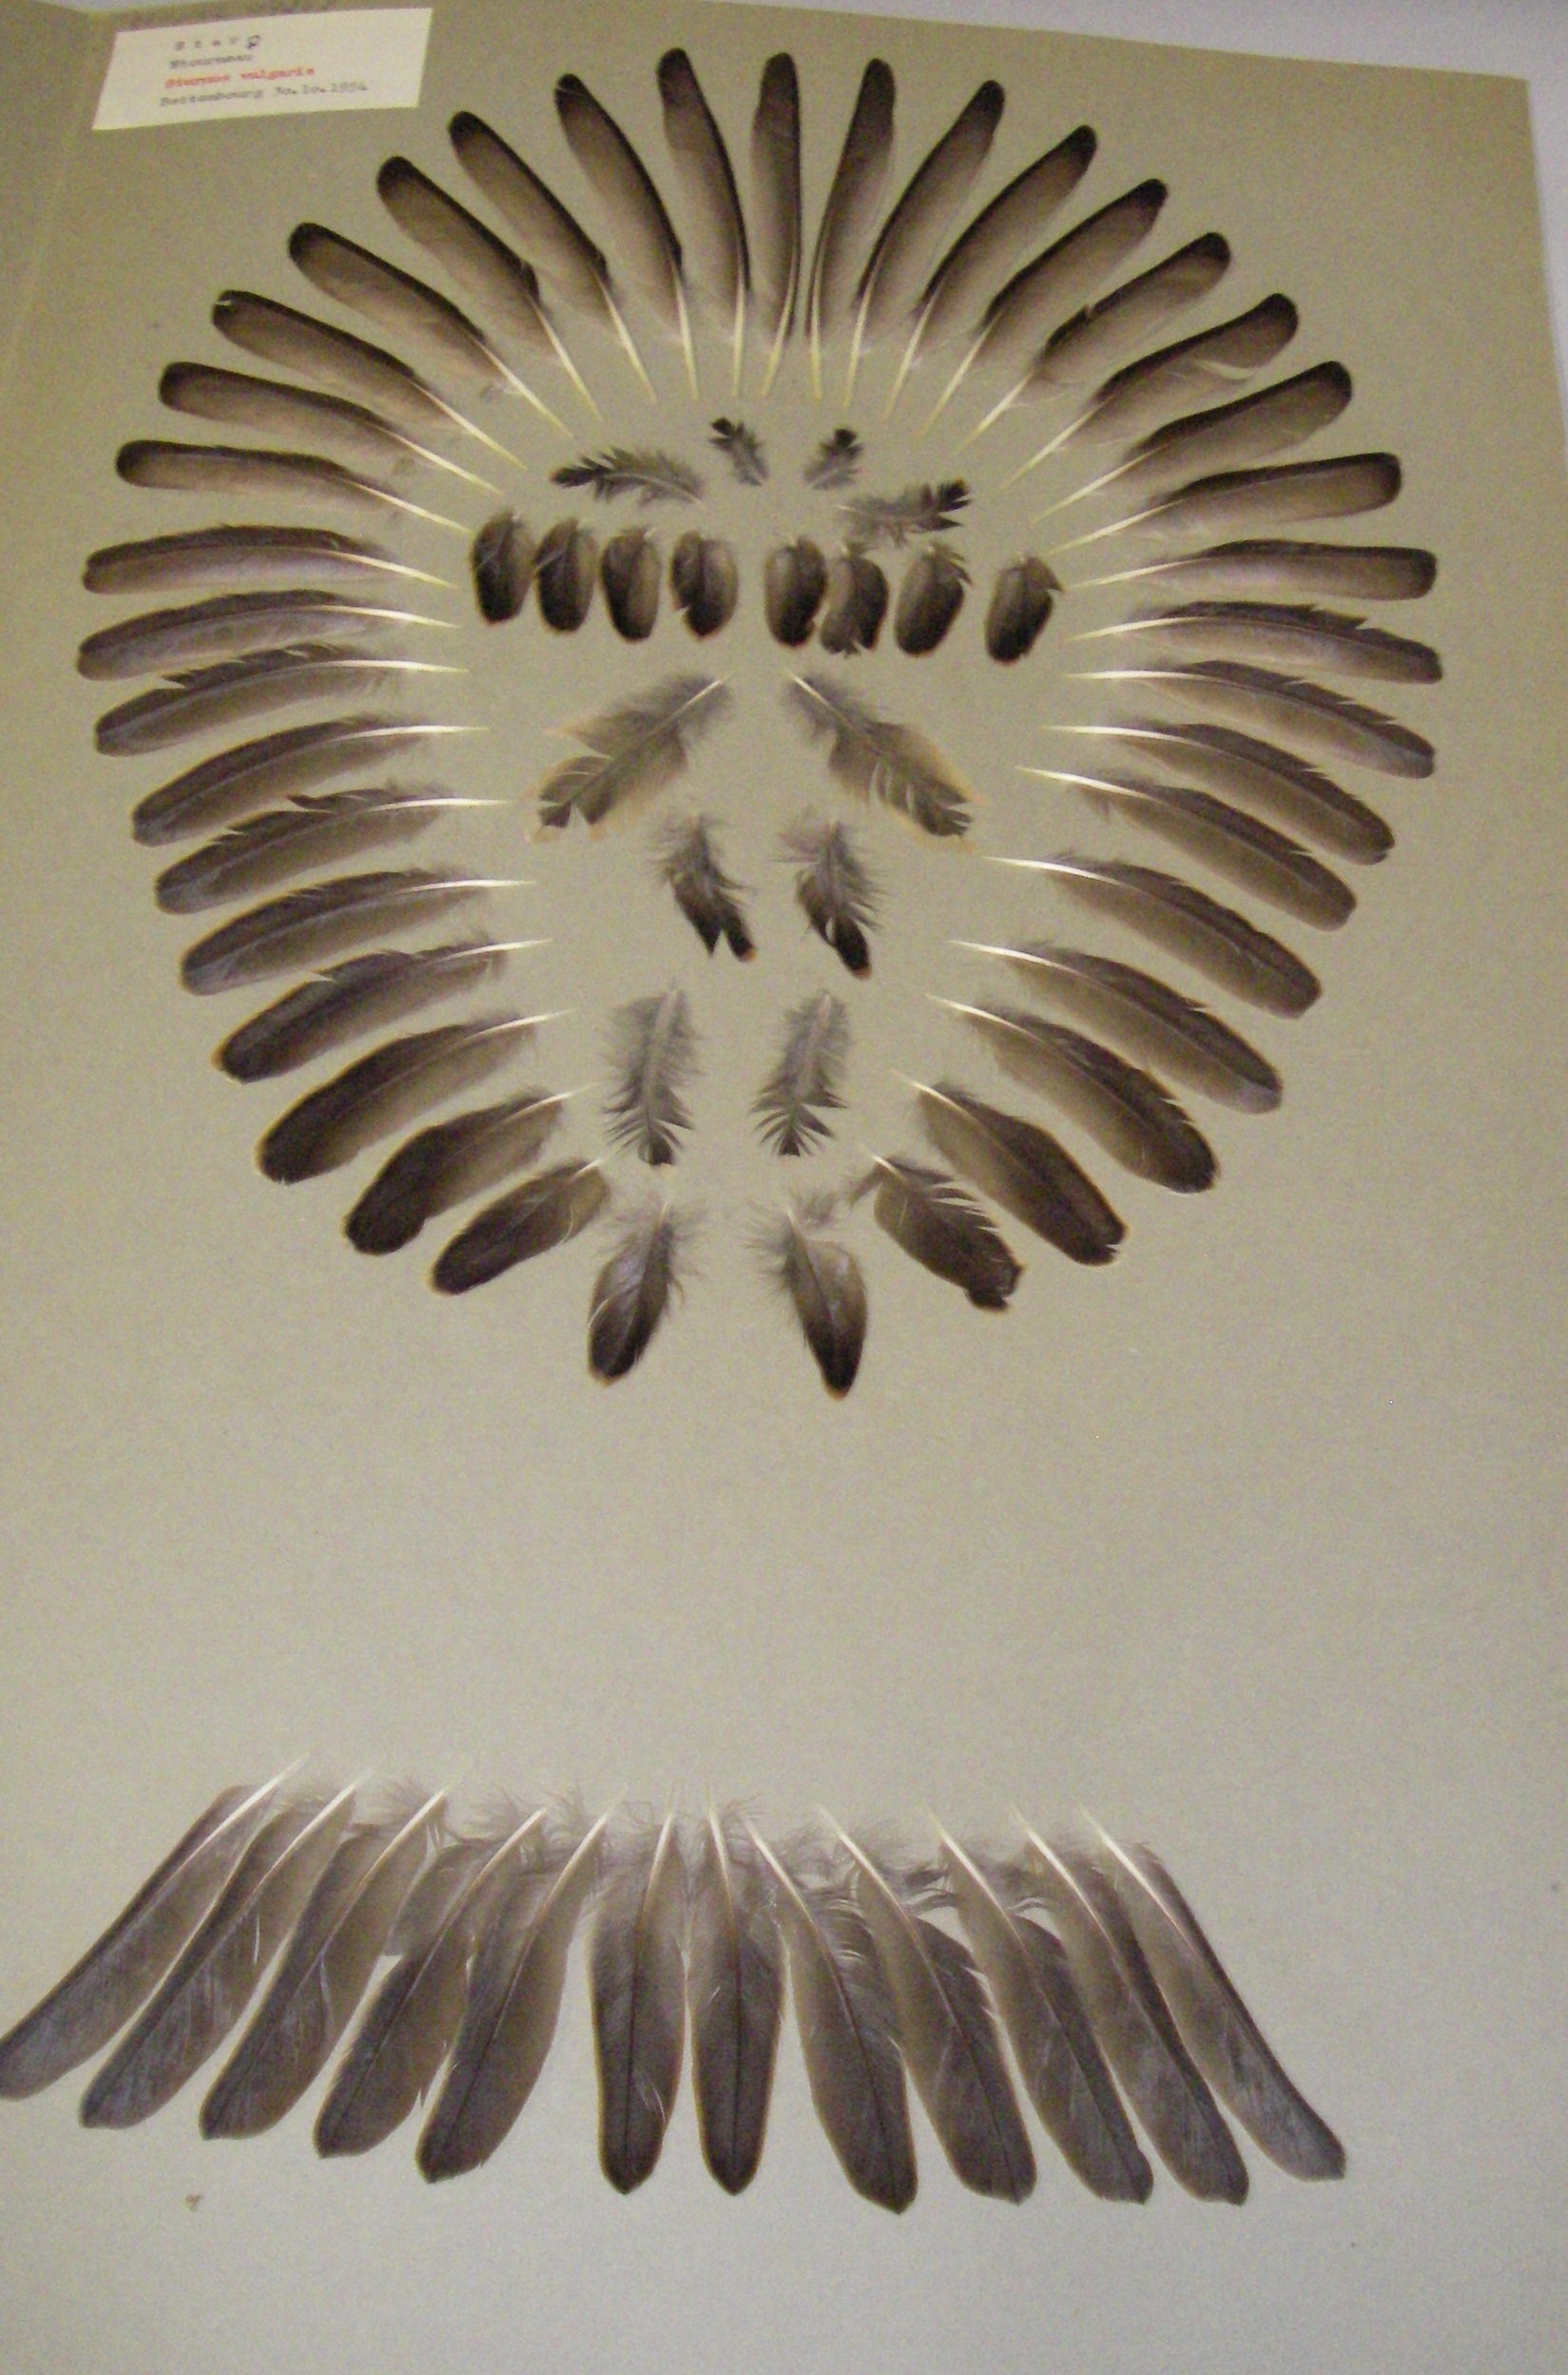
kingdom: Animalia
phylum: Chordata
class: Aves
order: Passeriformes
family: Sturnidae
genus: Sturnus
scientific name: Sturnus vulgaris
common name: Common starling
